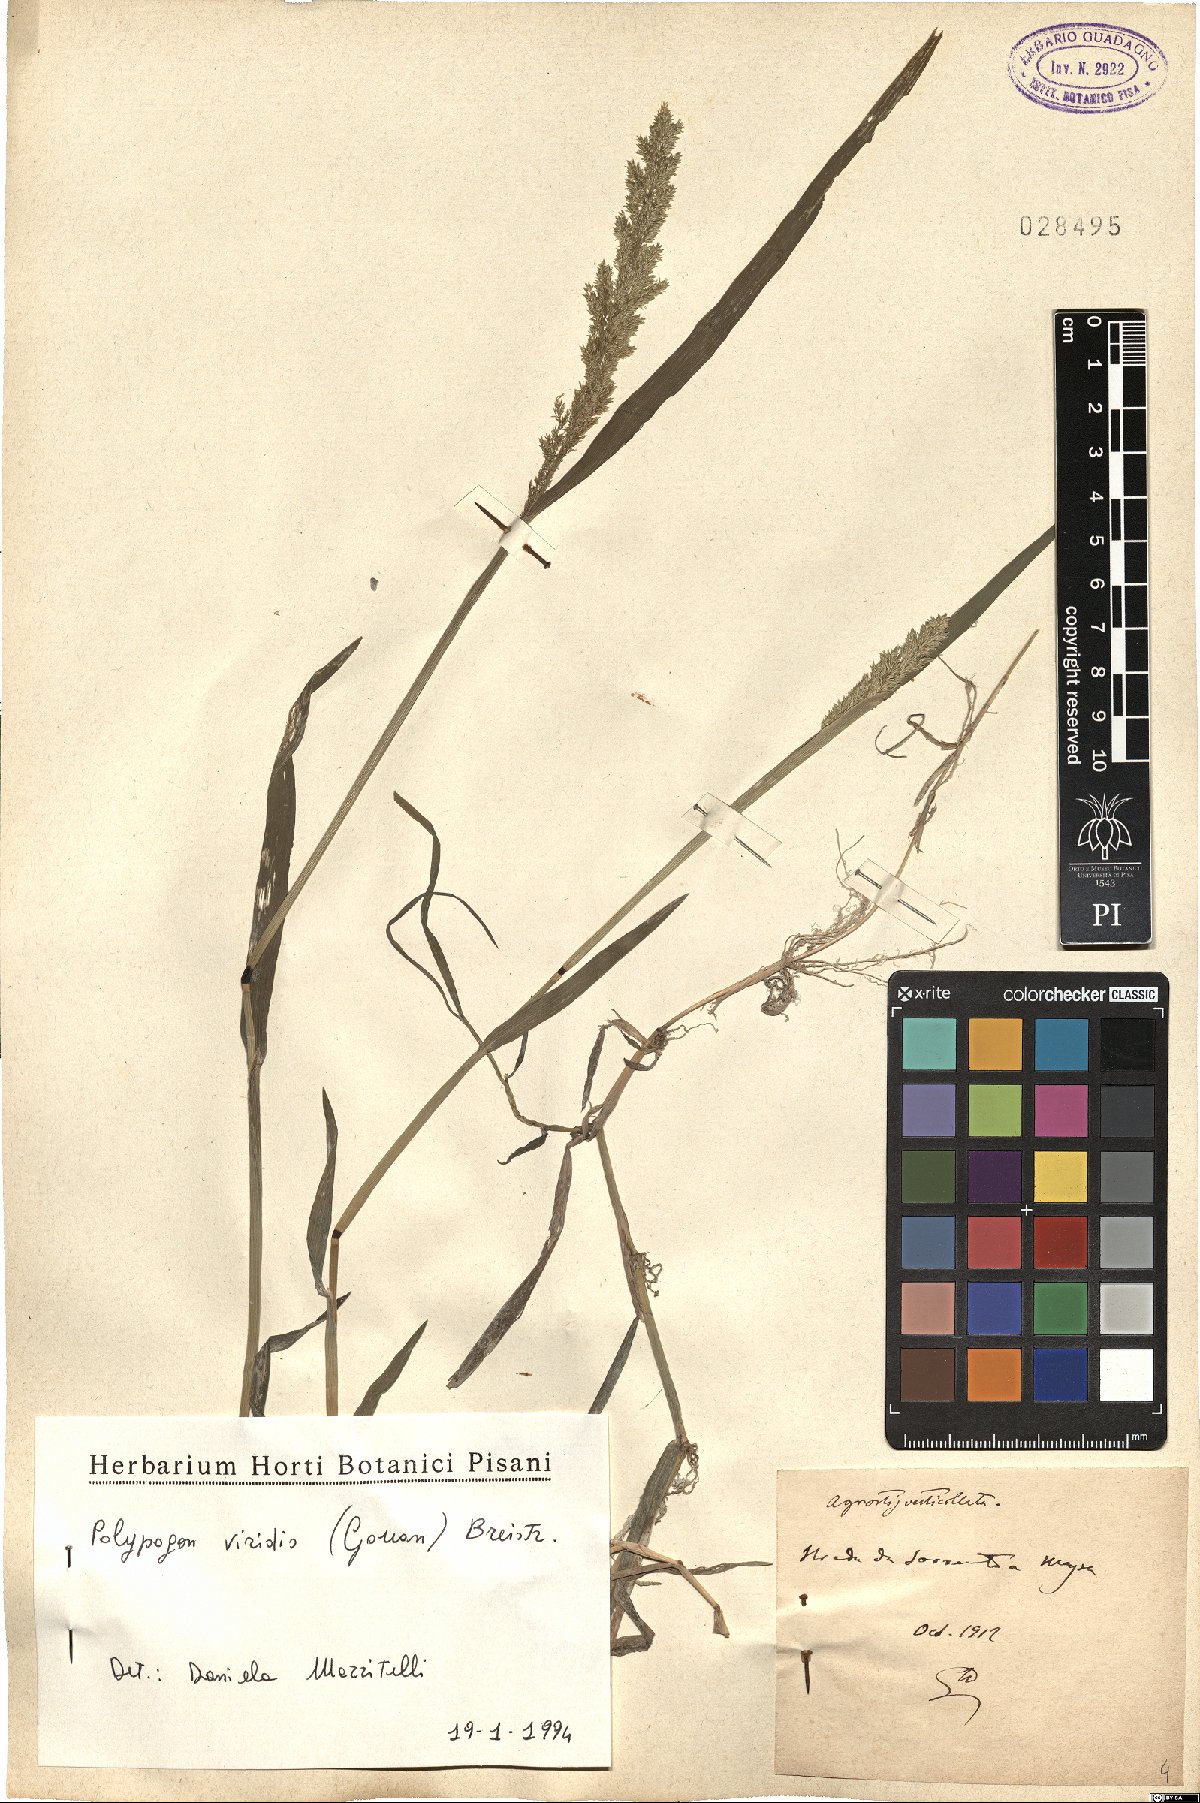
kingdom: Plantae
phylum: Tracheophyta
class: Liliopsida
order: Poales
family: Poaceae
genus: Polypogon
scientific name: Polypogon viridis
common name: Water bent
